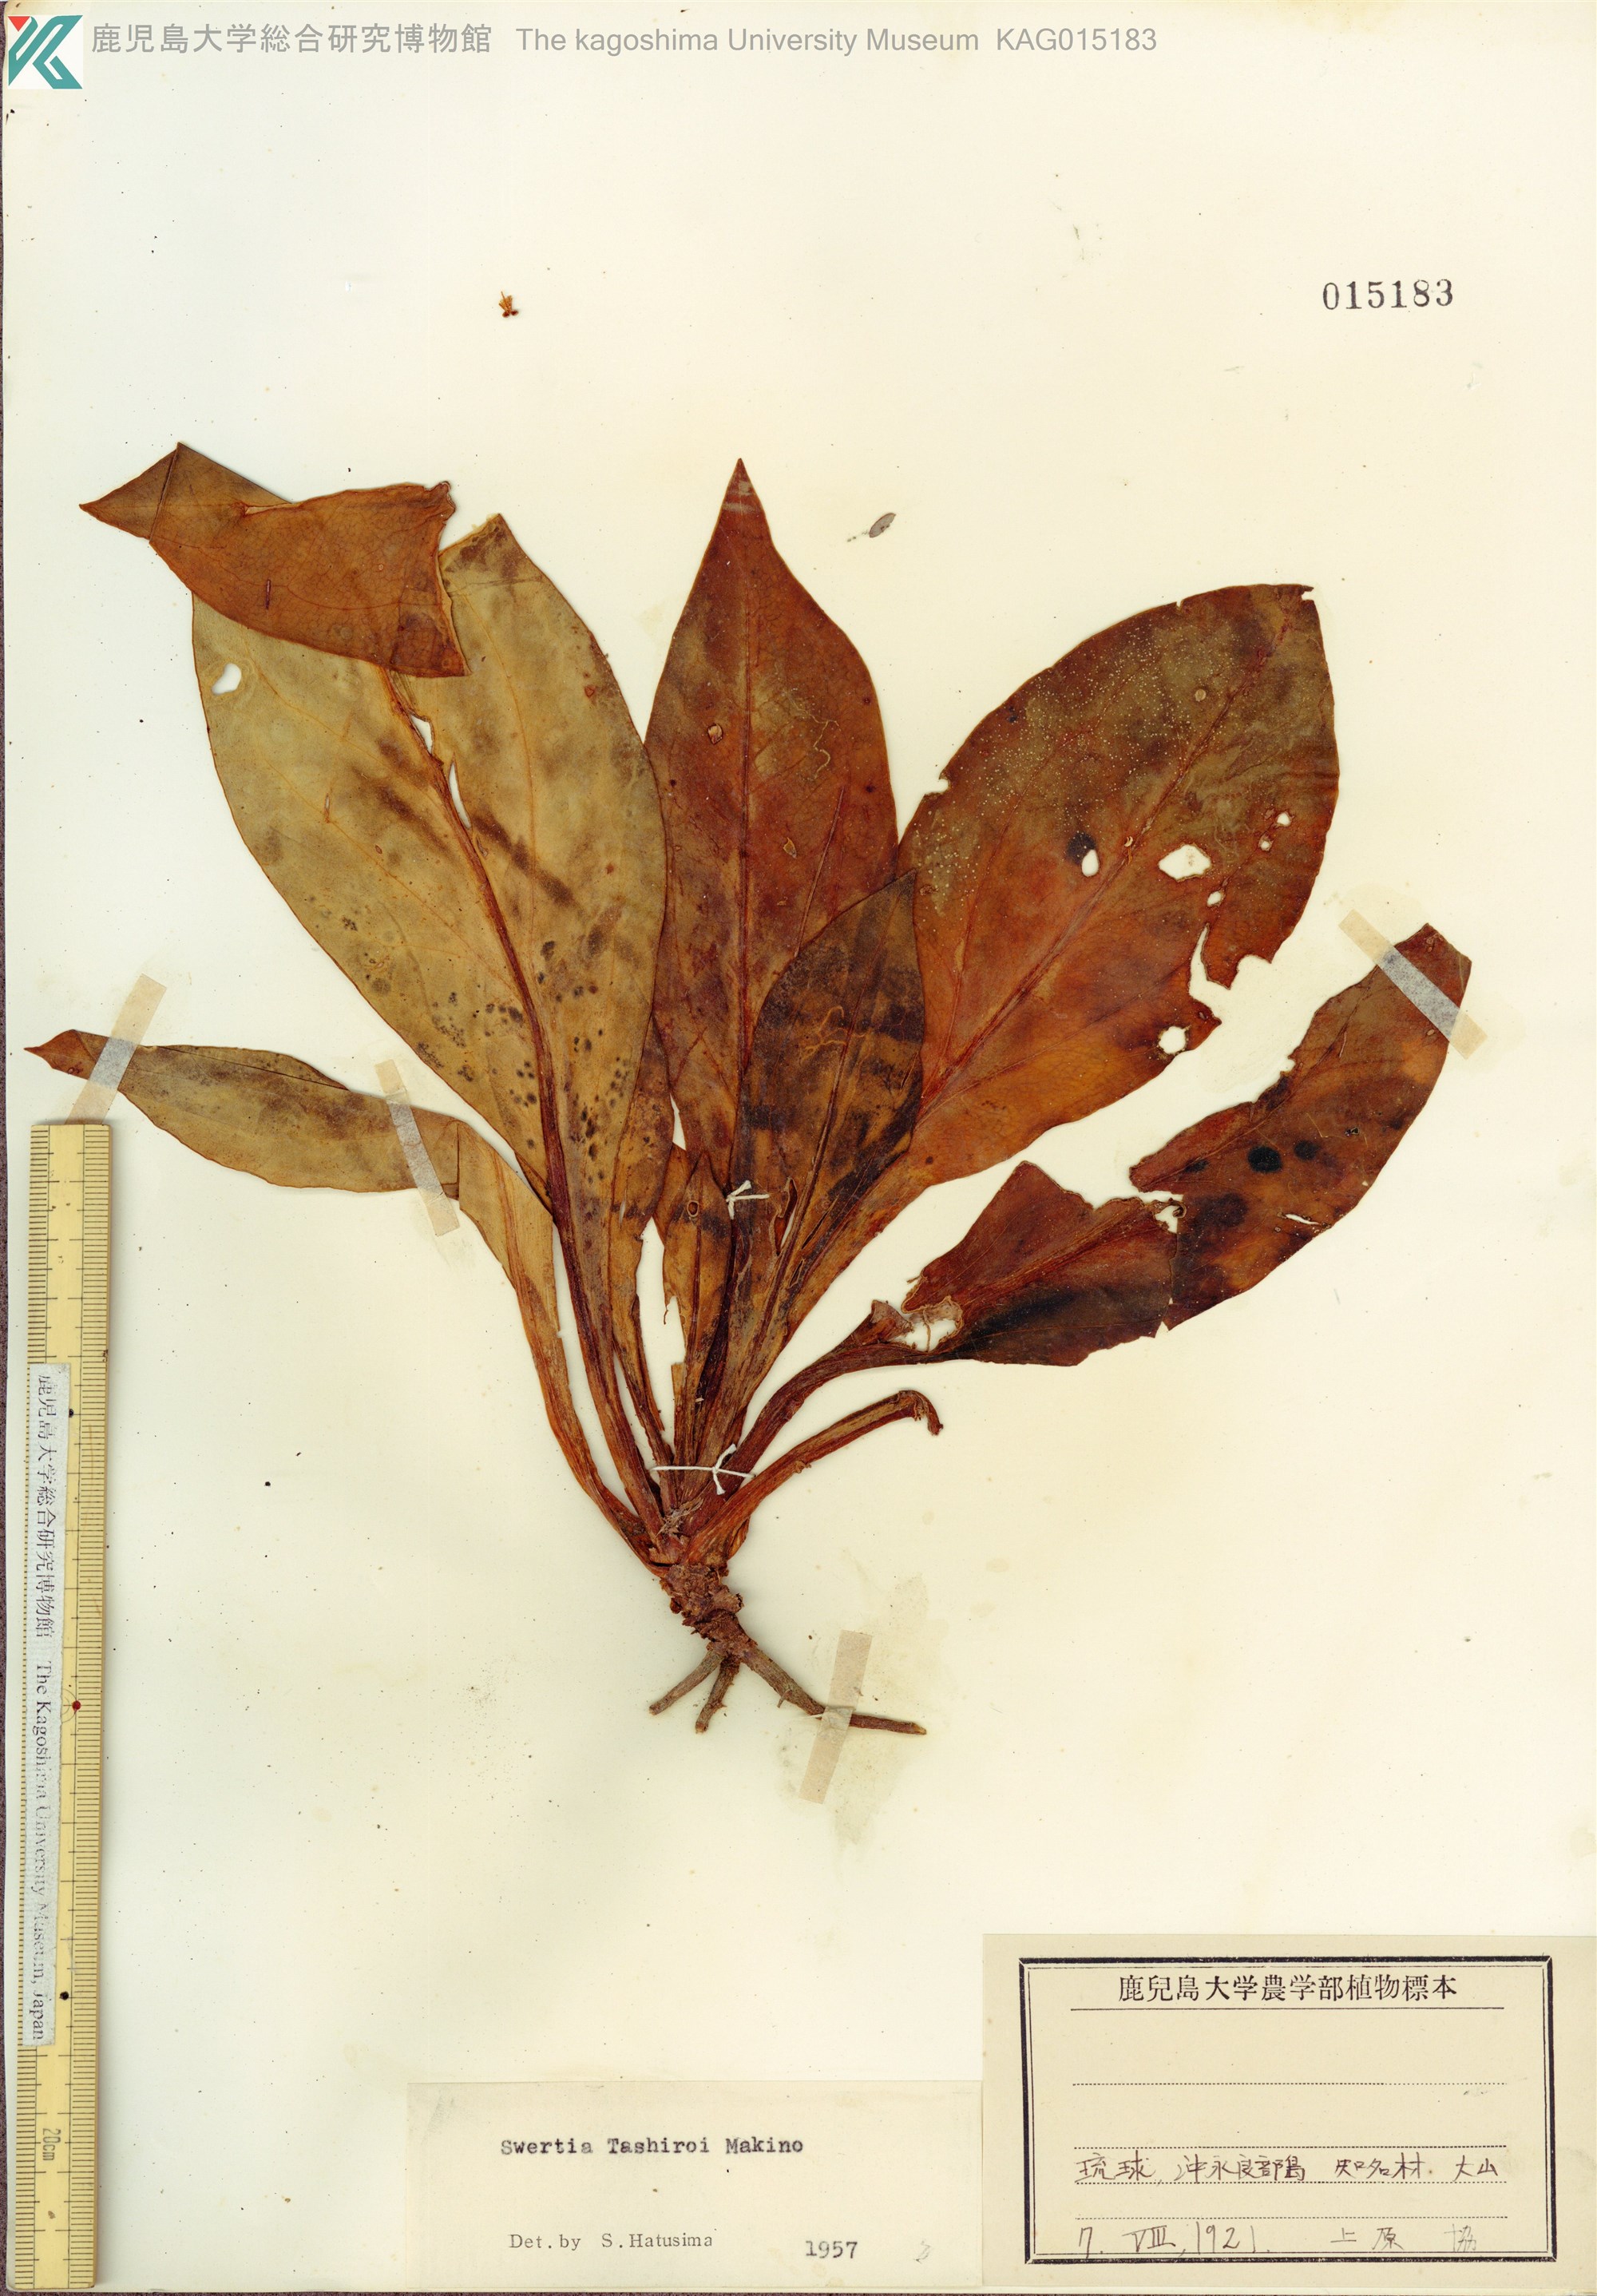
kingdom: Plantae
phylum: Tracheophyta
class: Magnoliopsida
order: Gentianales
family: Gentianaceae
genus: Swertia
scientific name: Swertia tashiroi
